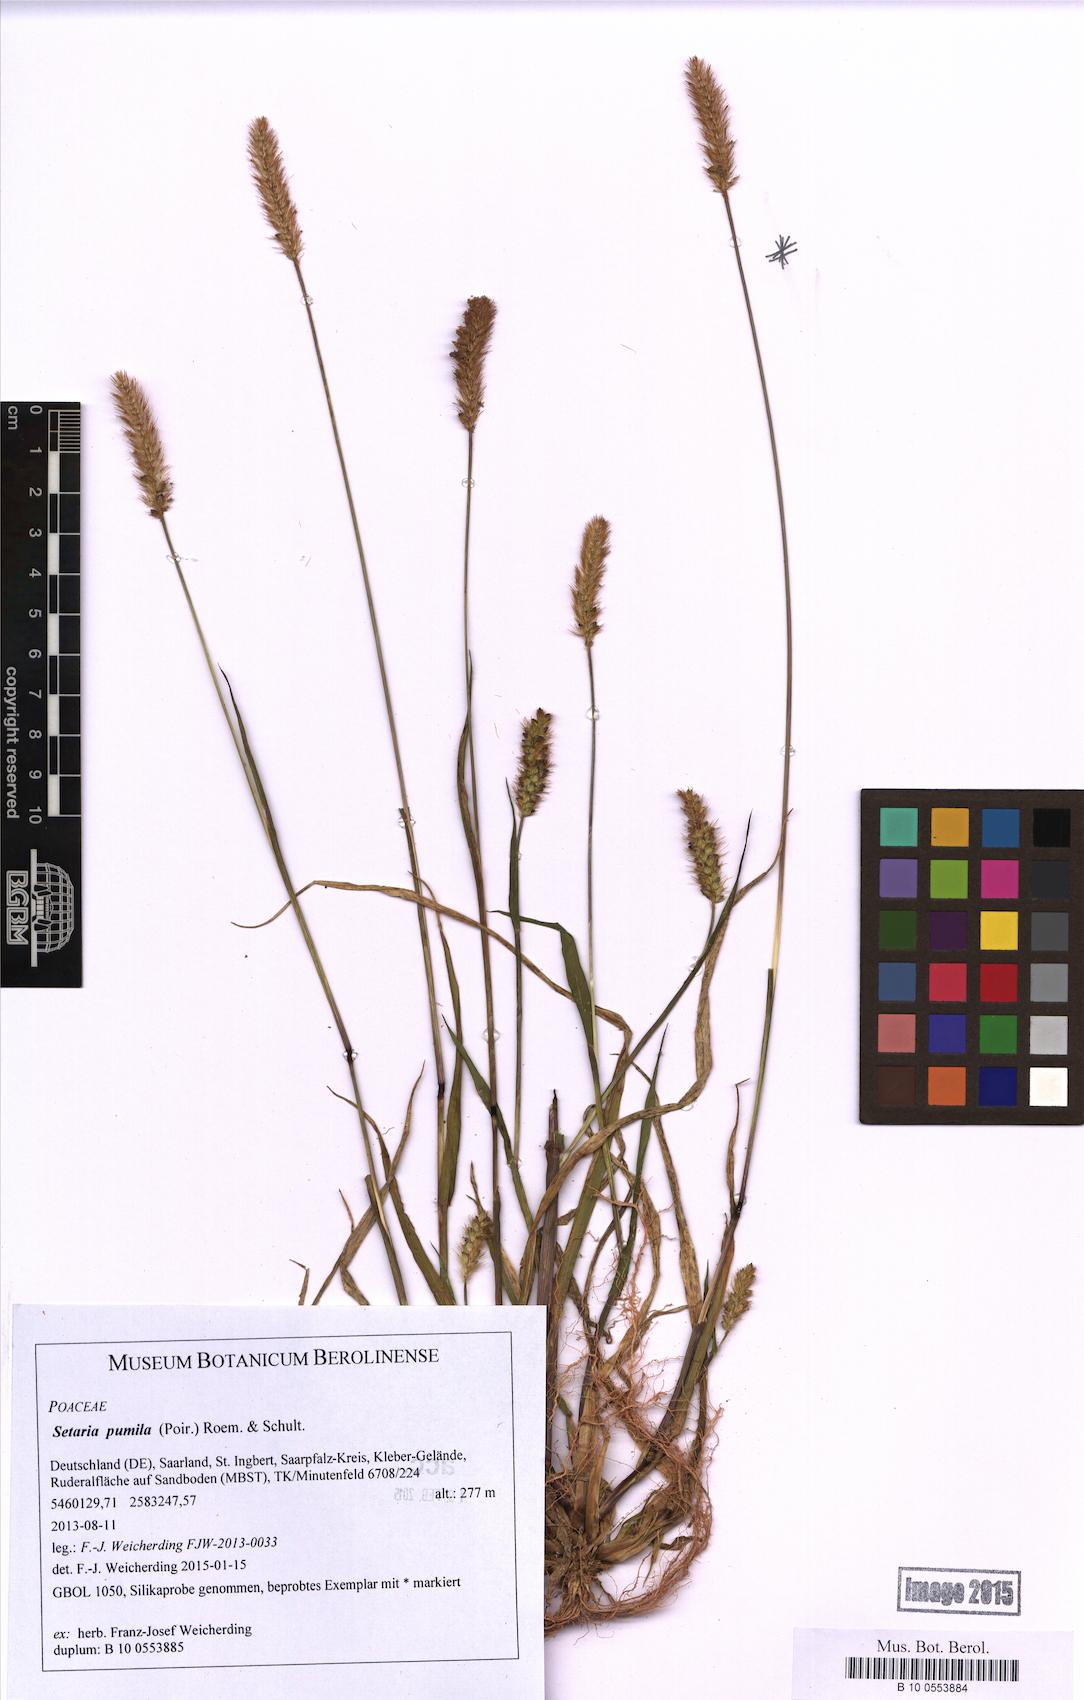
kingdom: Plantae
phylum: Tracheophyta
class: Liliopsida
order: Poales
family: Poaceae
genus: Setaria
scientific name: Setaria pumila
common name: Yellow bristle-grass
